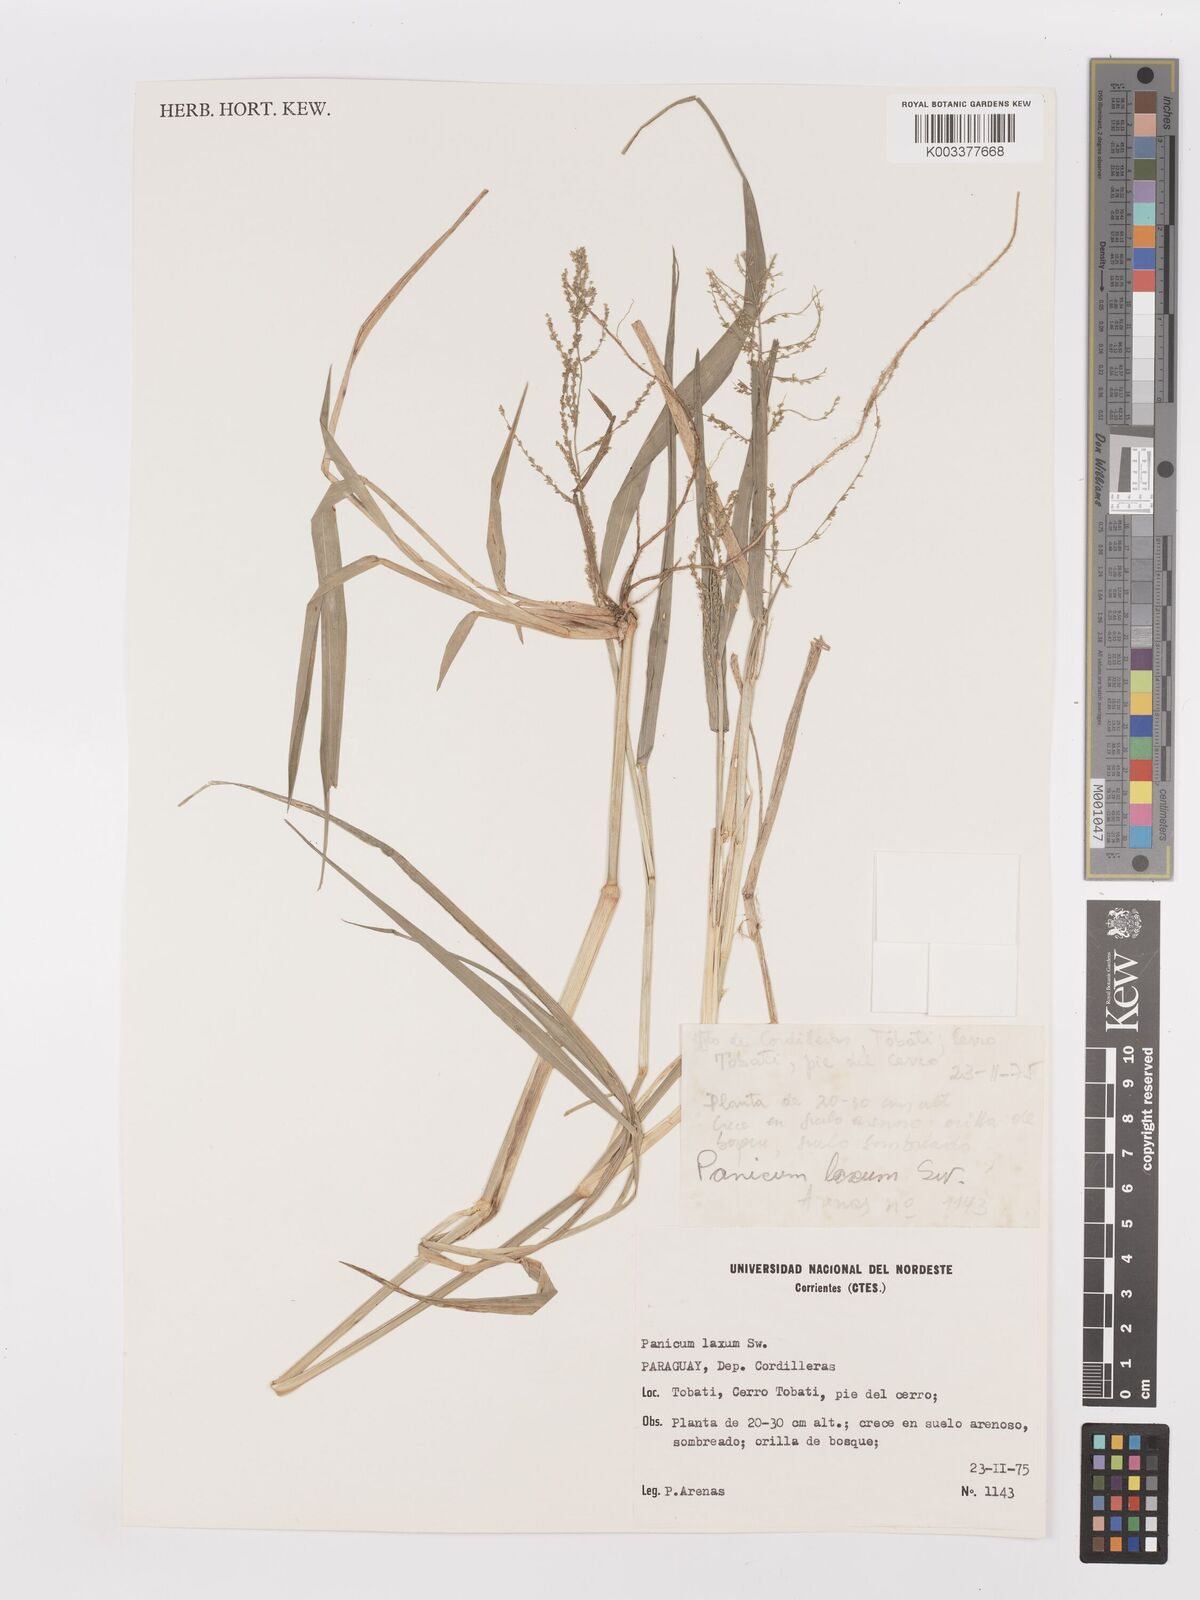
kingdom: Plantae
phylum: Tracheophyta
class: Liliopsida
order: Poales
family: Poaceae
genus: Steinchisma
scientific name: Steinchisma laxum
